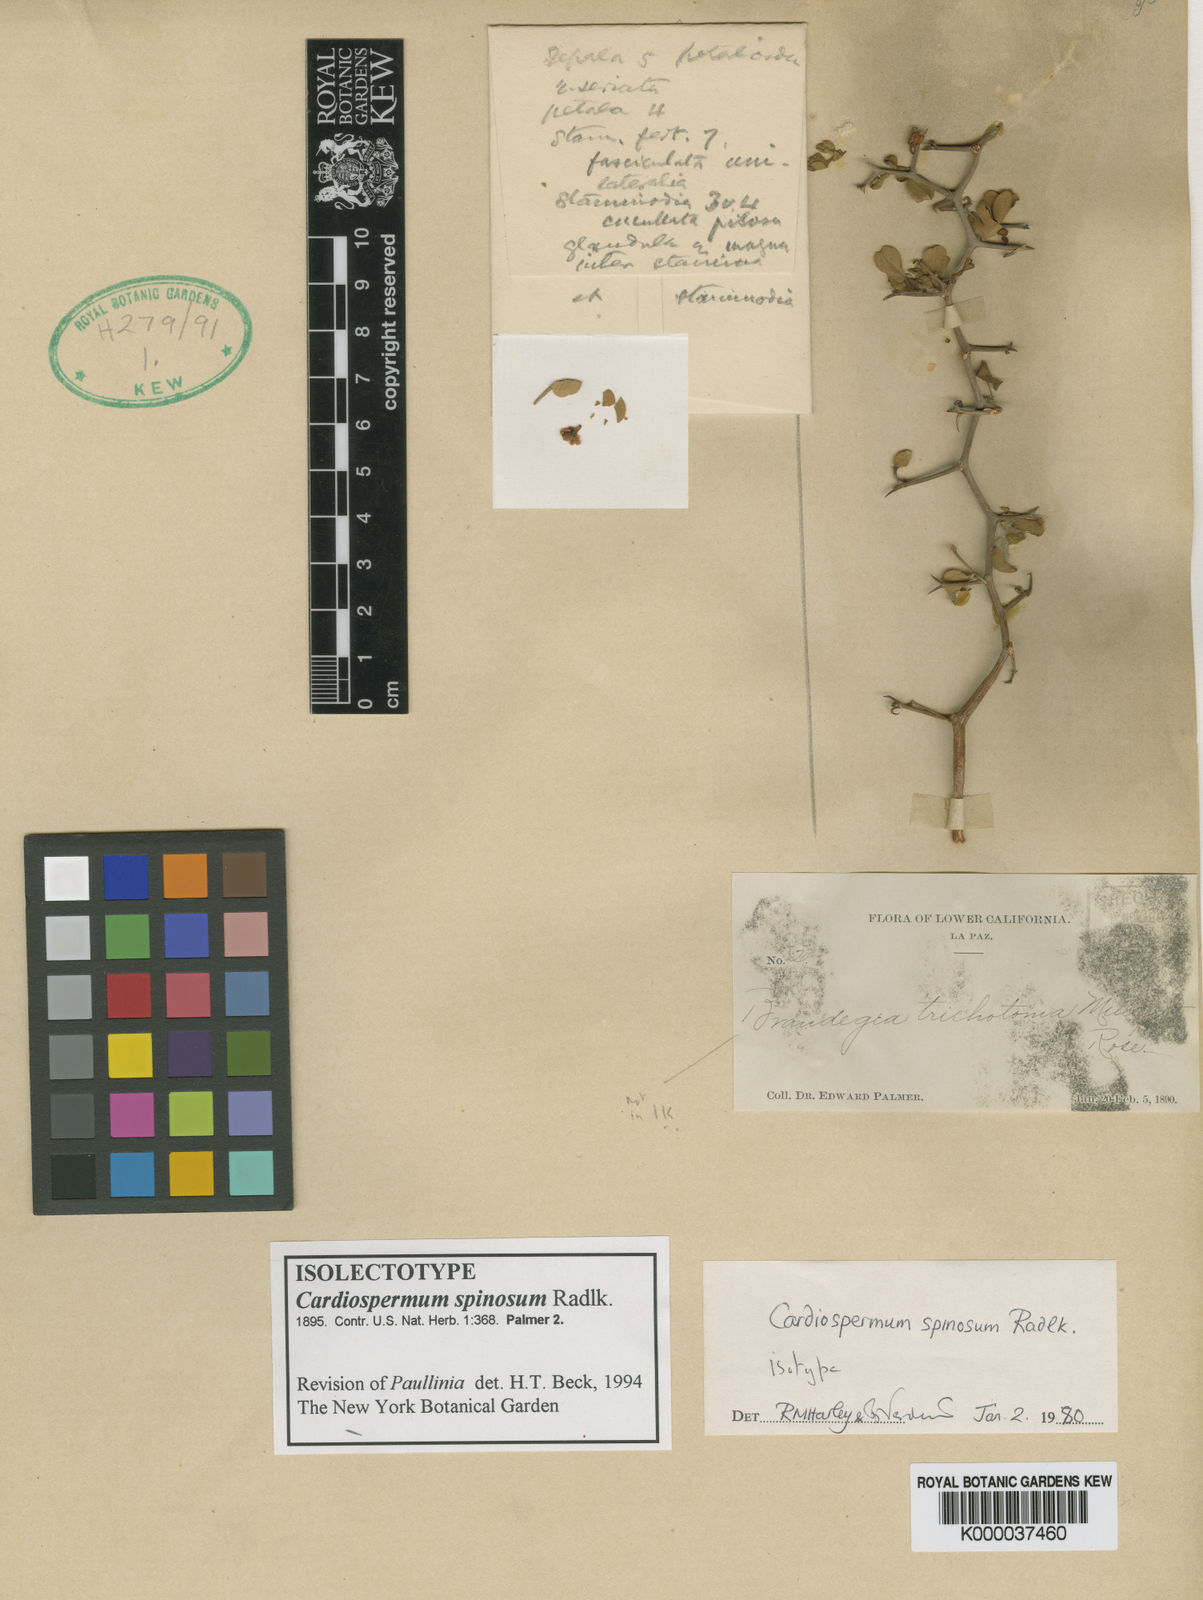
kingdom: Plantae
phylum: Tracheophyta
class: Magnoliopsida
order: Sapindales
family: Sapindaceae
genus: Serjania
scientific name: Serjania spinosa
